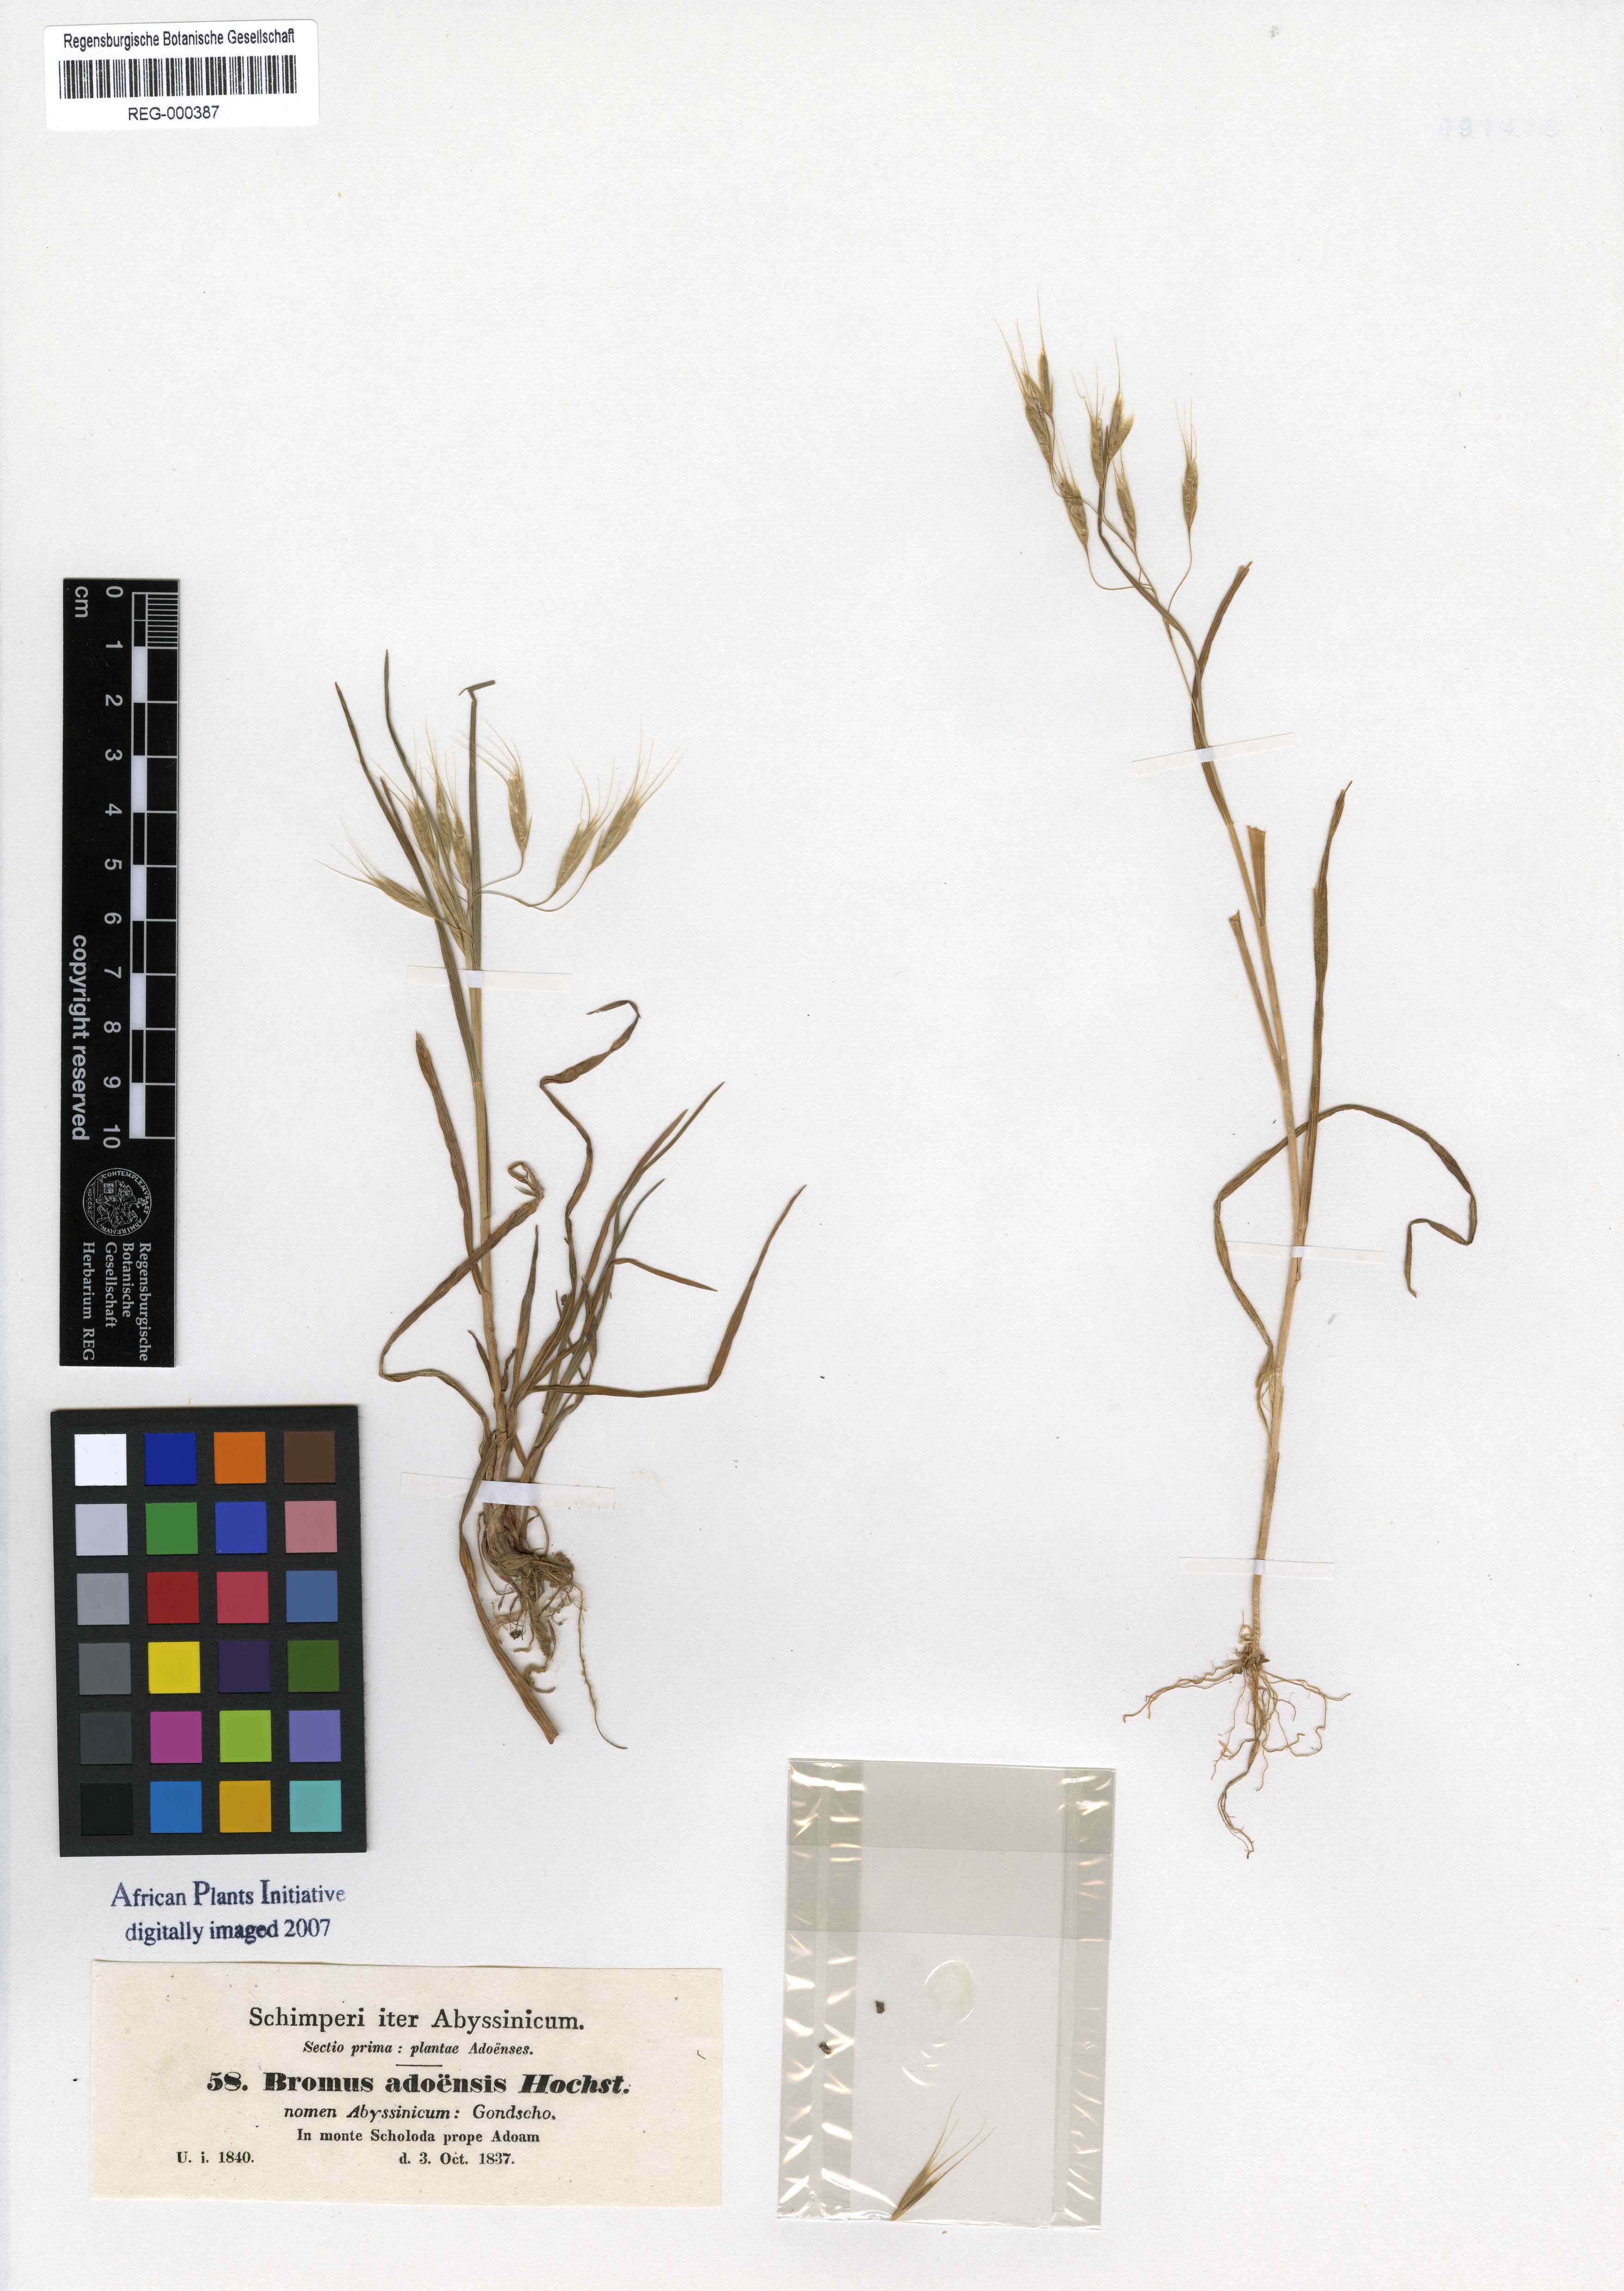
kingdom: Plantae
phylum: Tracheophyta
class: Liliopsida
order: Poales
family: Poaceae
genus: Bromus
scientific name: Bromus pectinatus
